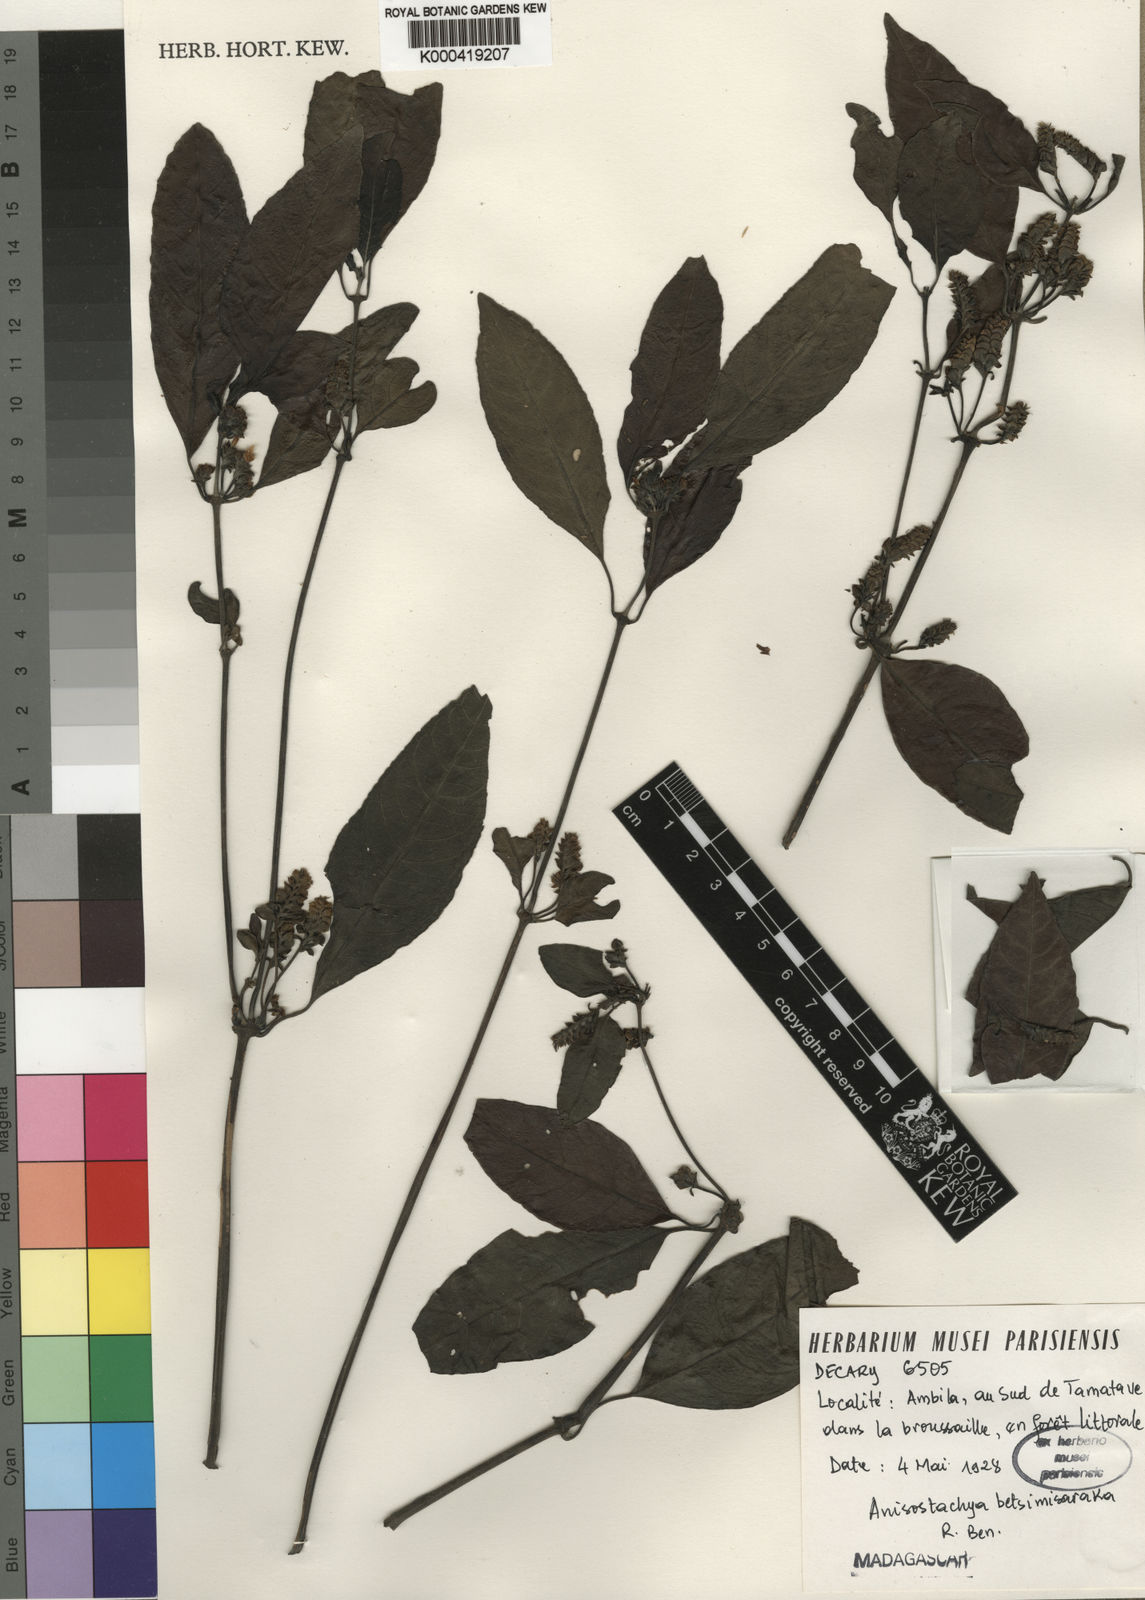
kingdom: Plantae
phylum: Tracheophyta
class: Magnoliopsida
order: Lamiales
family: Acanthaceae
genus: Justicia
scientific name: Justicia
